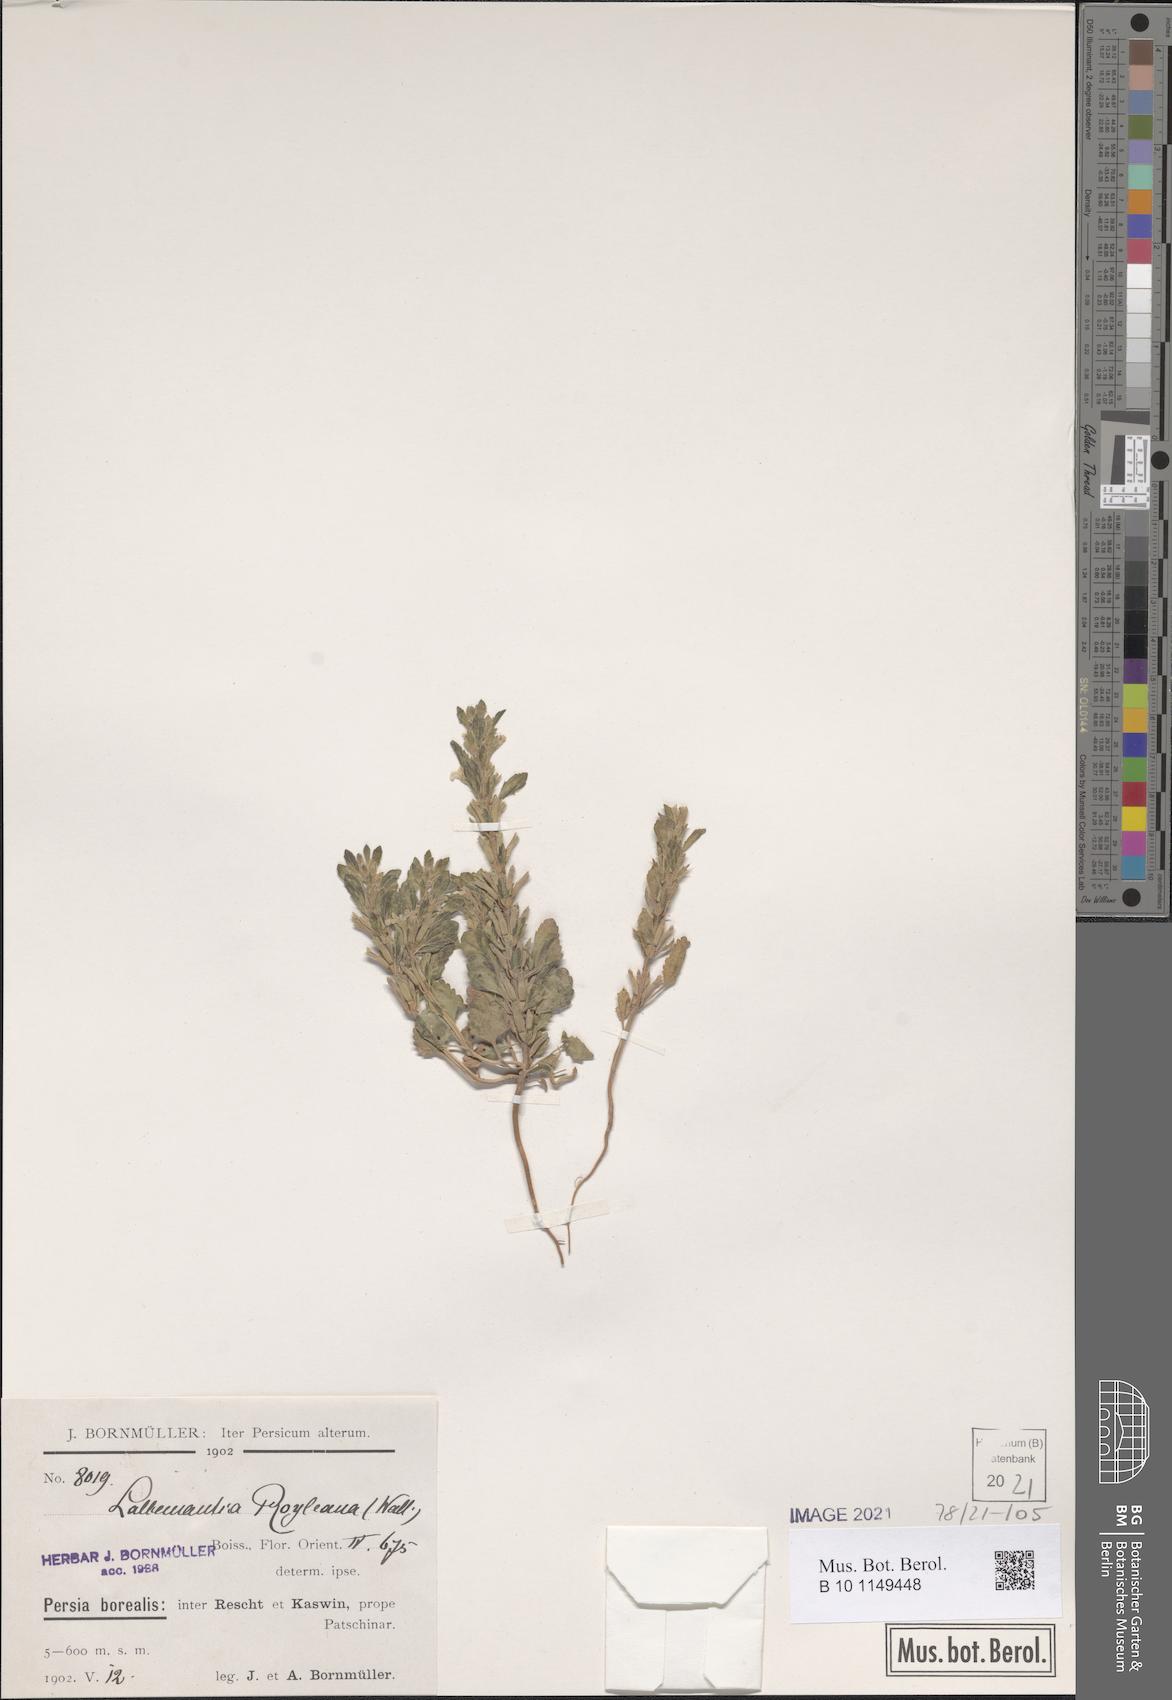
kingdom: Plantae
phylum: Tracheophyta
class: Magnoliopsida
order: Lamiales
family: Lamiaceae
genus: Lallemantia
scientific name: Lallemantia royleana
